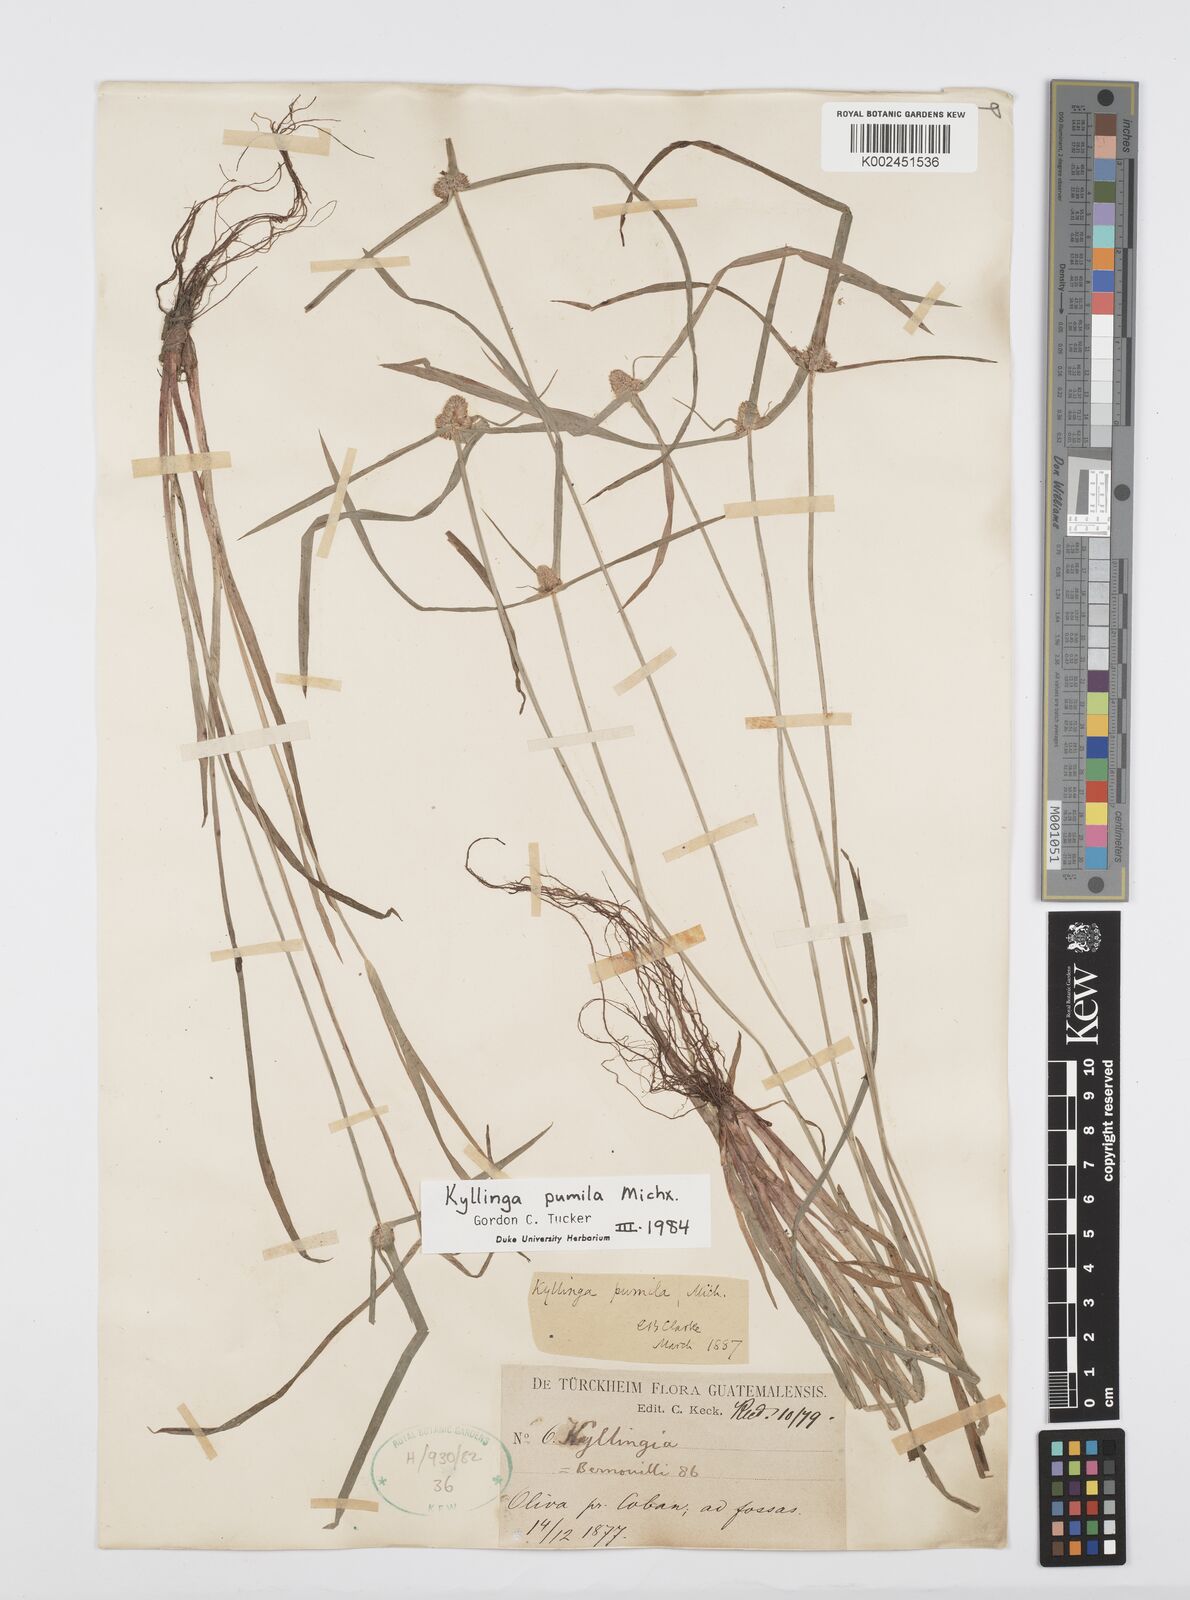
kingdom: Plantae
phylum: Tracheophyta
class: Liliopsida
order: Poales
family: Cyperaceae
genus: Cyperus
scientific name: Cyperus
